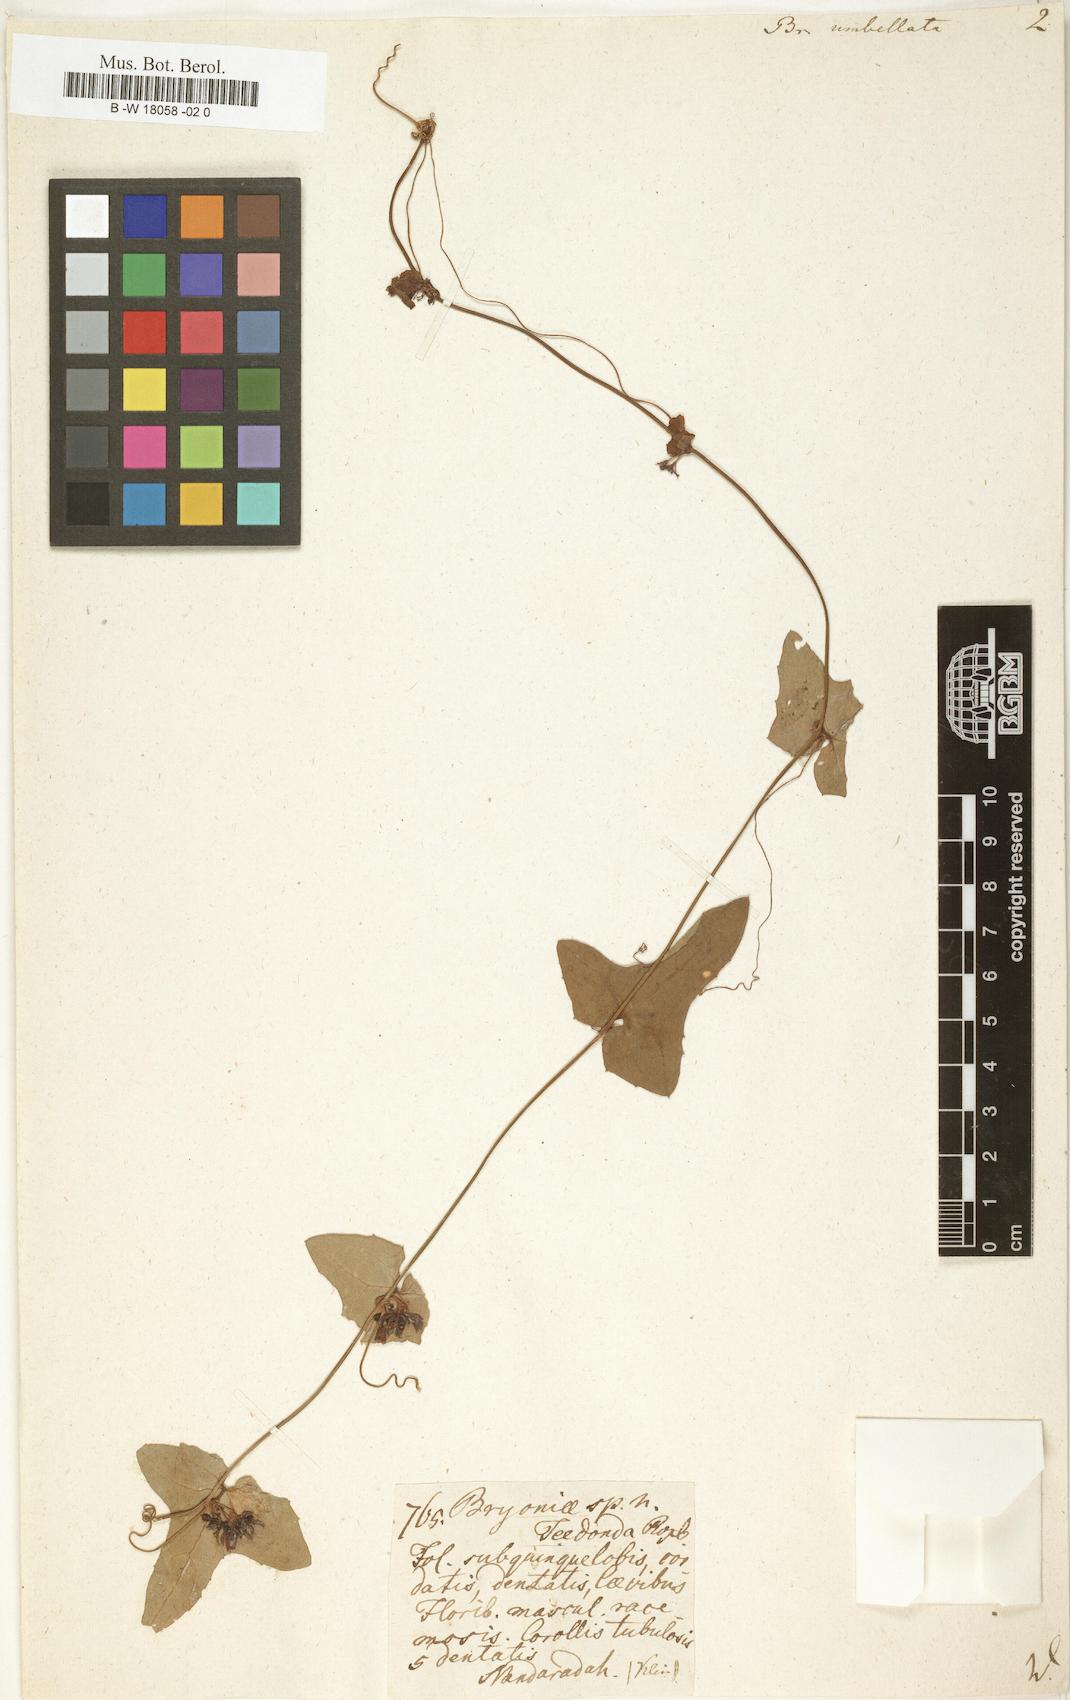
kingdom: Plantae
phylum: Tracheophyta
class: Magnoliopsida
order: Cucurbitales
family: Cucurbitaceae
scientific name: Cucurbitaceae
